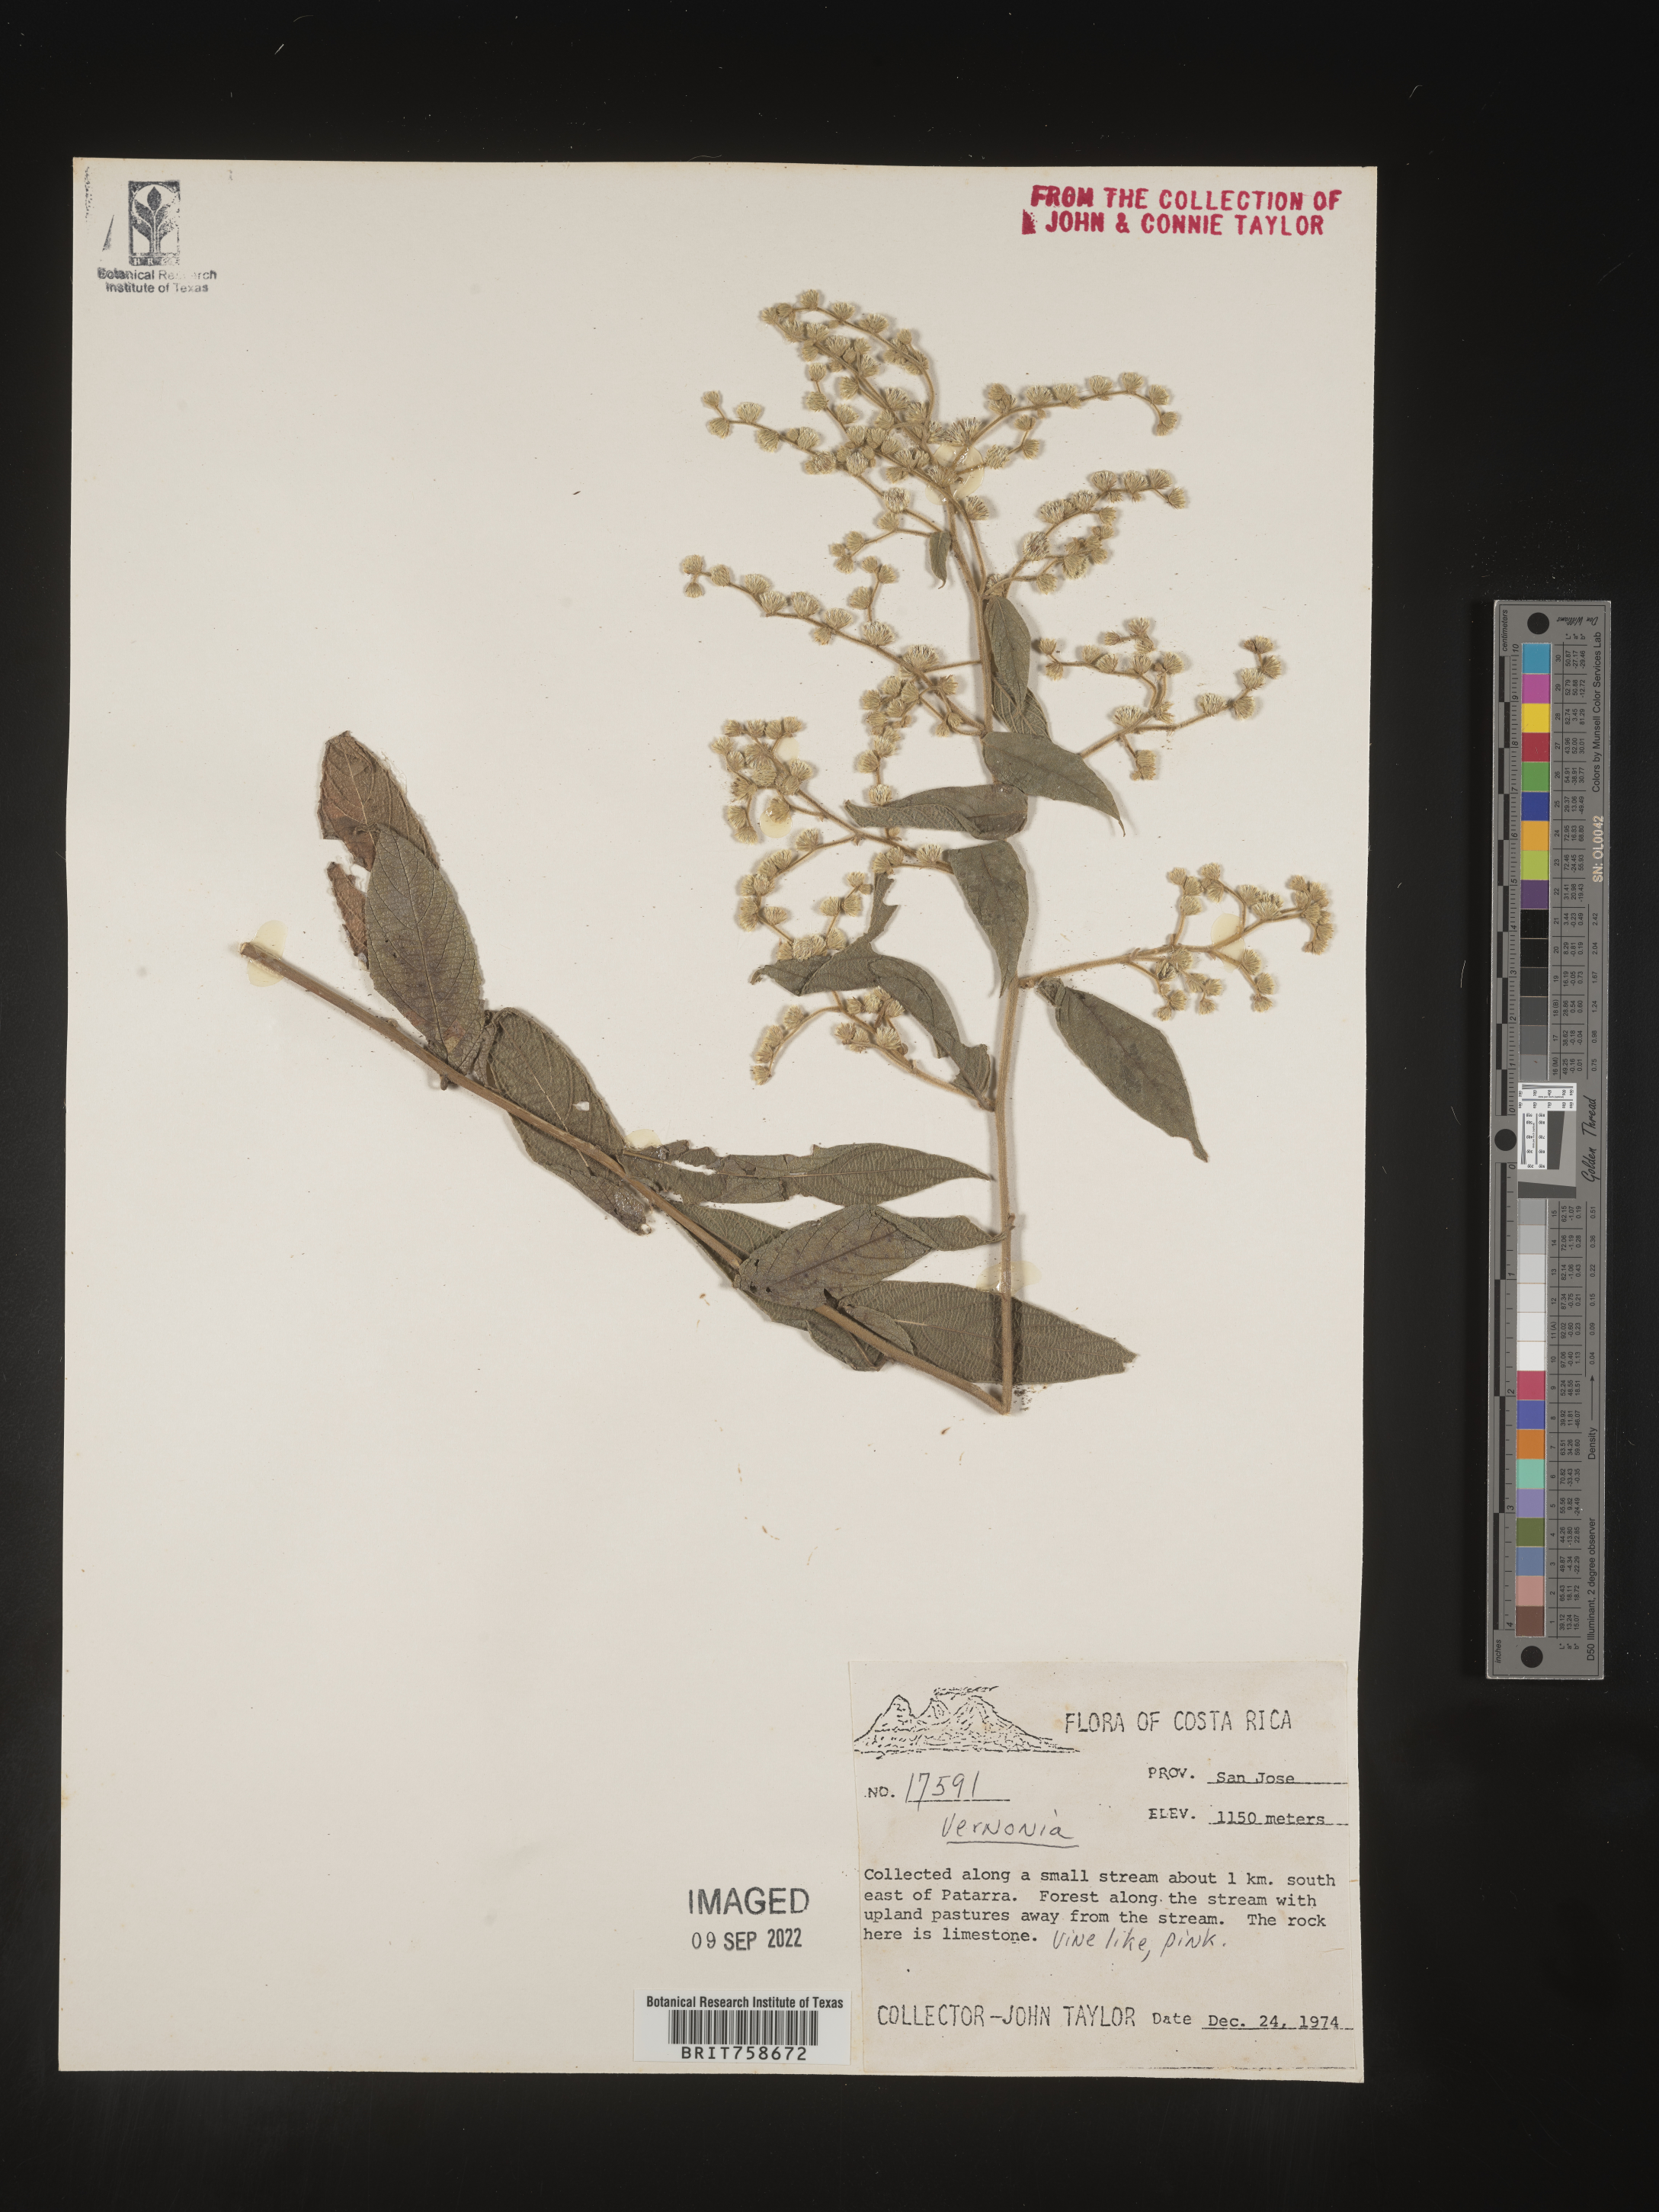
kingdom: Plantae
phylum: Tracheophyta
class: Magnoliopsida
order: Asterales
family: Asteraceae
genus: Vernonia
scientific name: Vernonia
